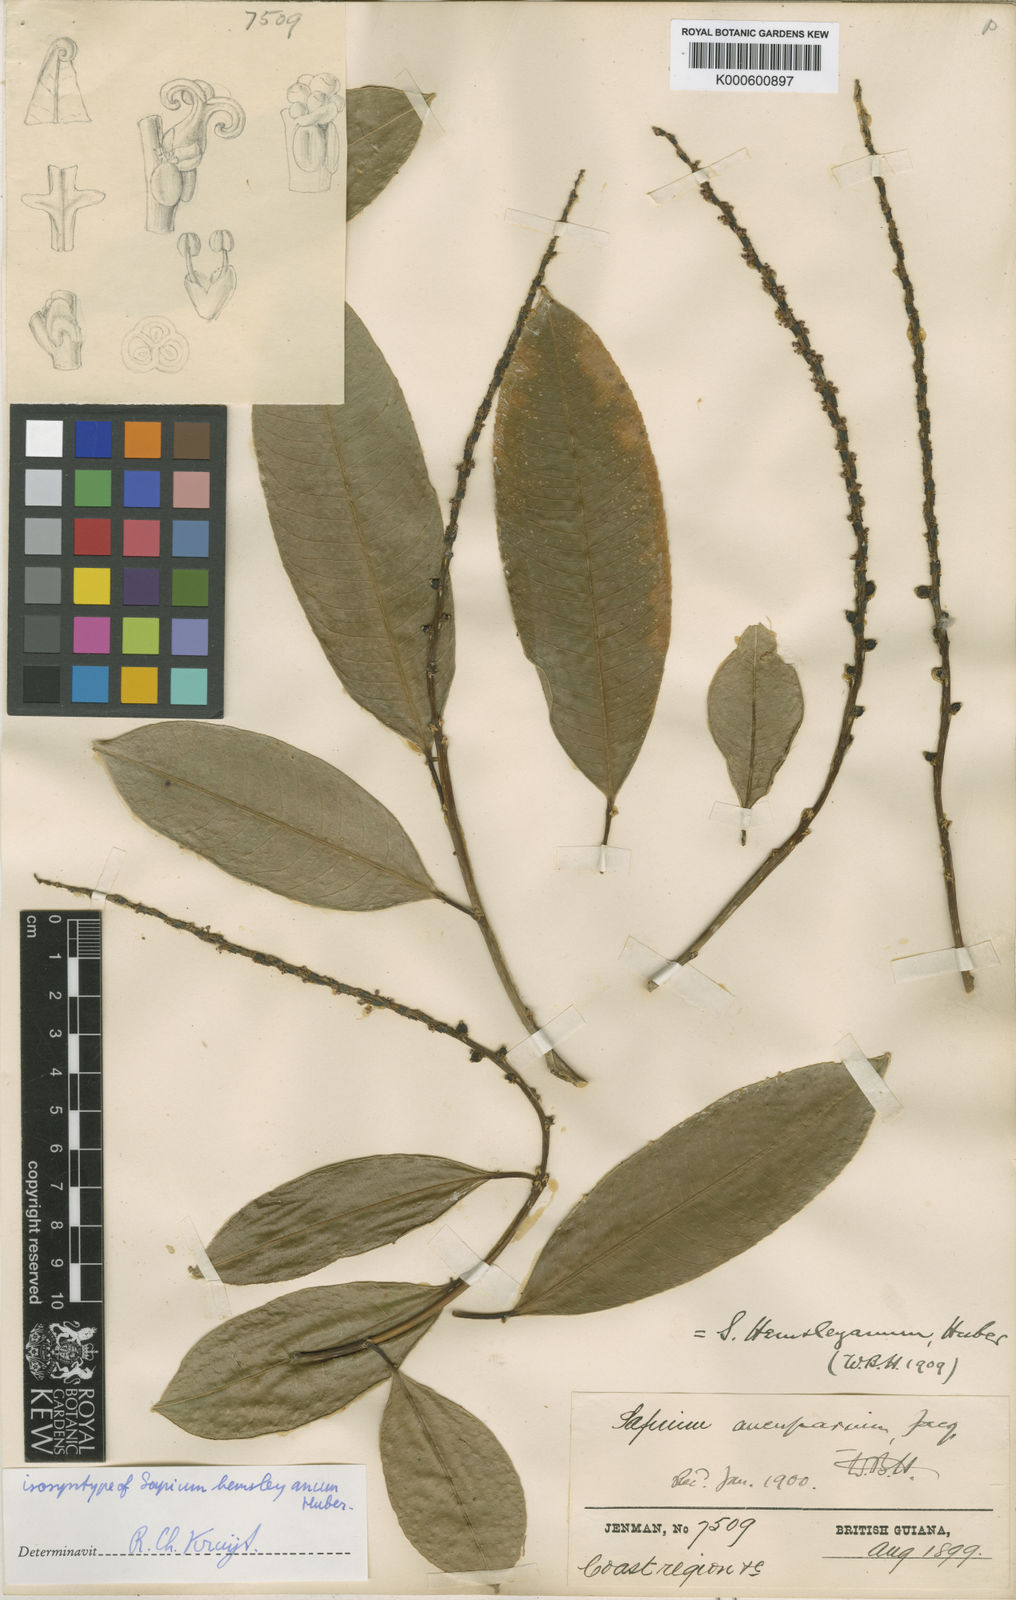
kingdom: Plantae
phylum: Tracheophyta
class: Magnoliopsida
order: Malpighiales
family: Euphorbiaceae
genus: Sapium
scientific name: Sapium glandulosum
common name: Milktree
